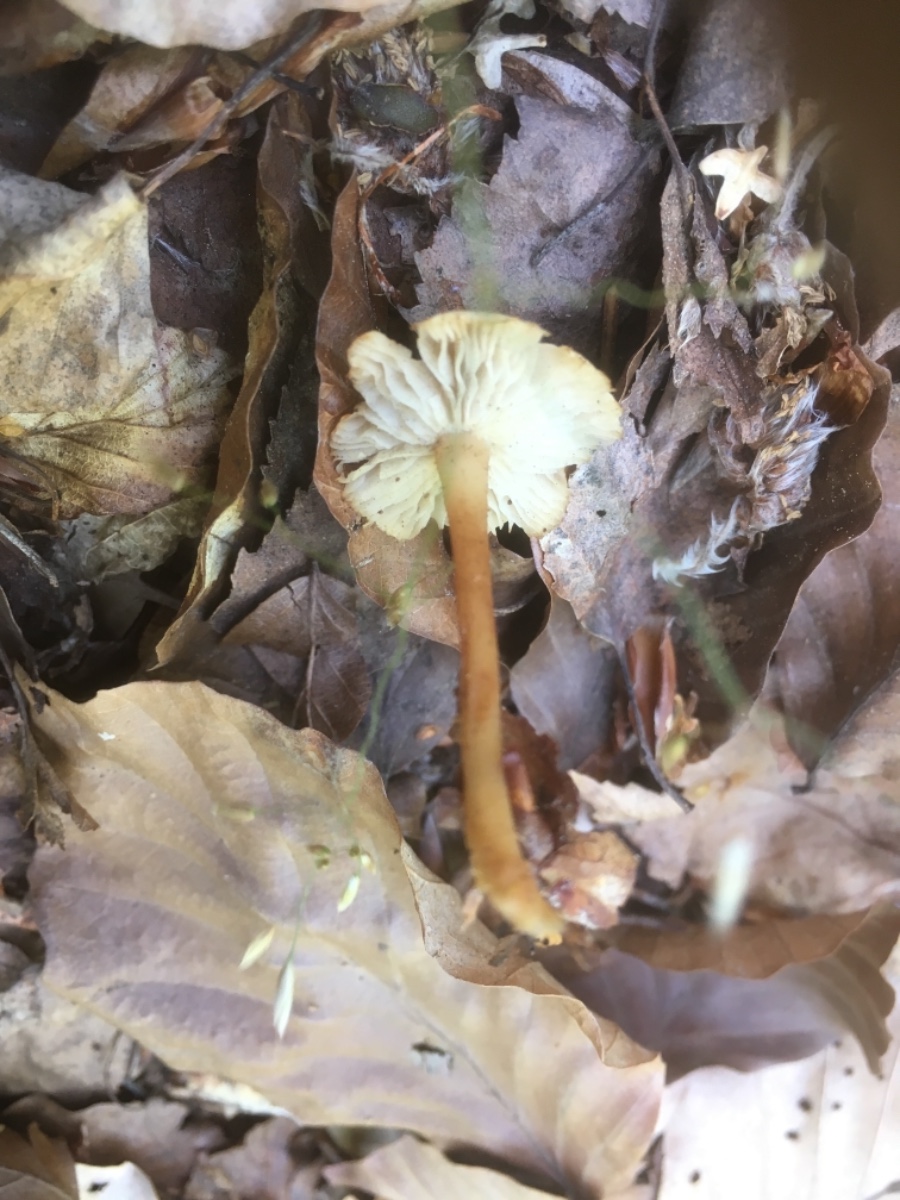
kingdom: Fungi
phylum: Basidiomycota
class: Agaricomycetes
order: Agaricales
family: Omphalotaceae
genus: Gymnopus
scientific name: Gymnopus
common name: fladhat
